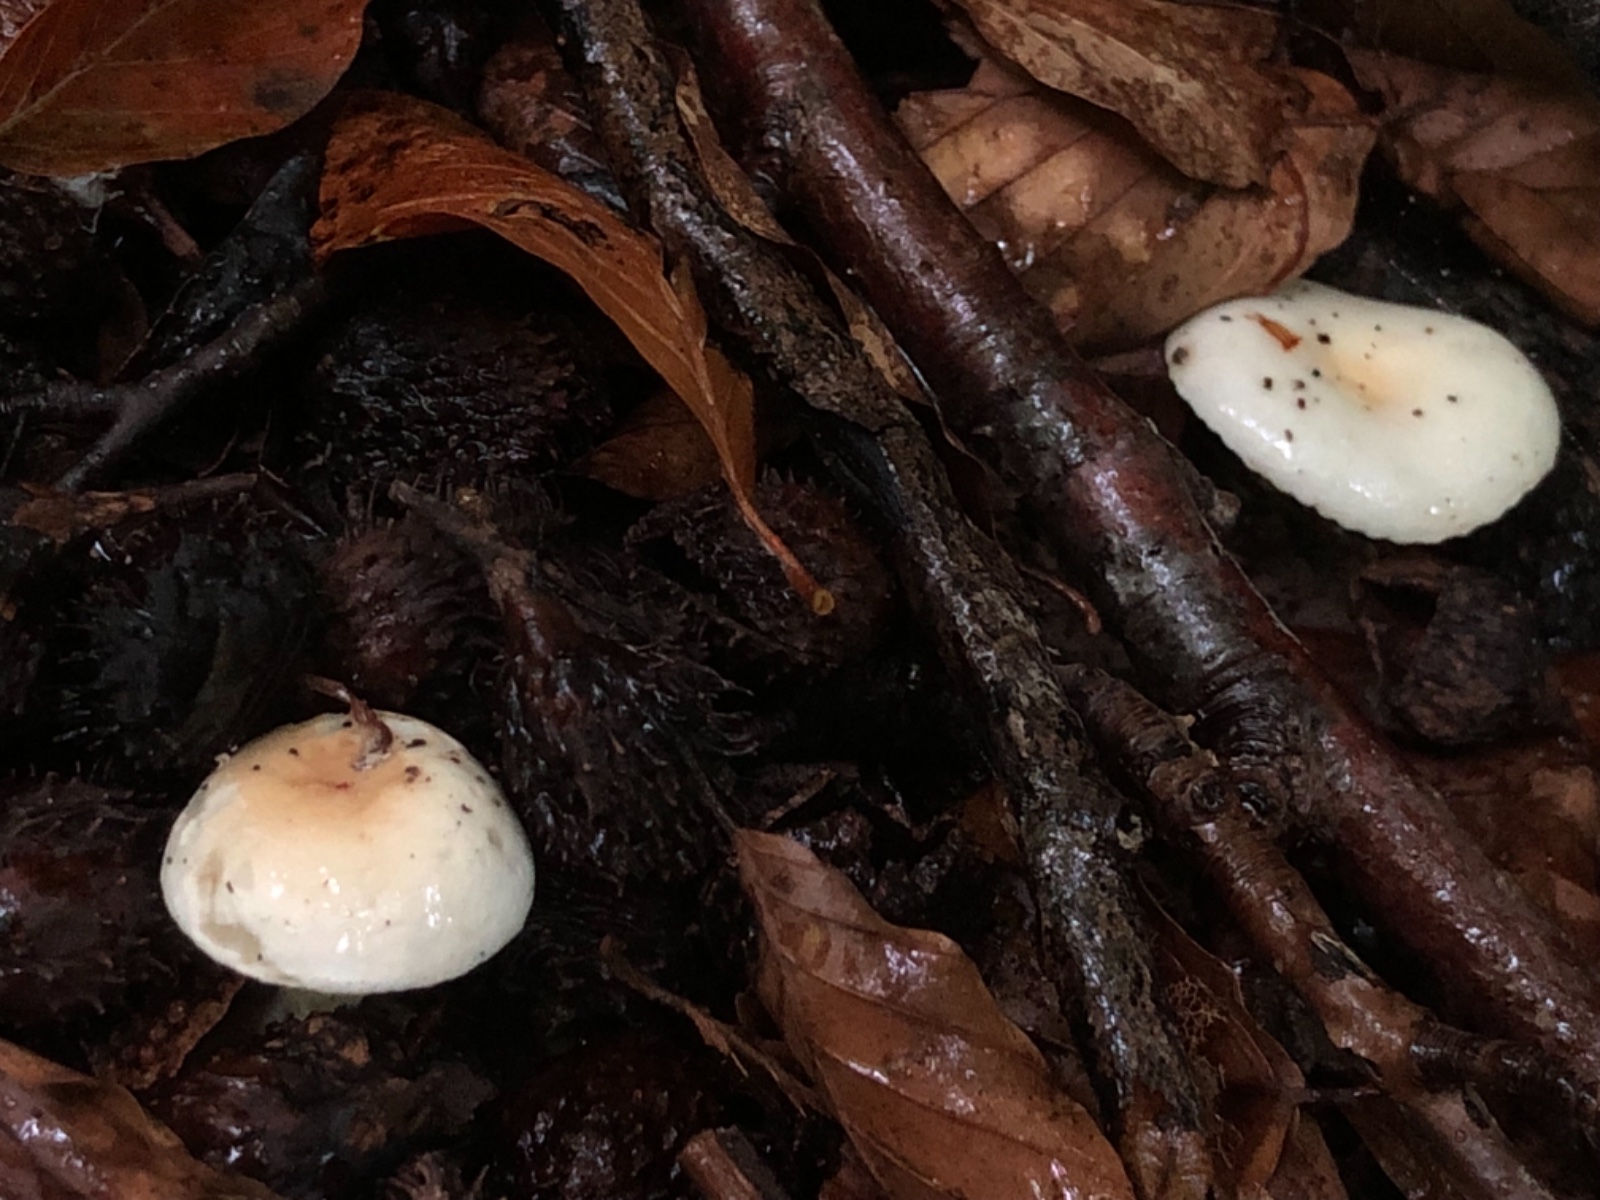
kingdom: Fungi
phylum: Basidiomycota
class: Agaricomycetes
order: Agaricales
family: Hygrophoraceae
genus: Hygrophorus
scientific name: Hygrophorus unicolor
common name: orangeøjet sneglehat
